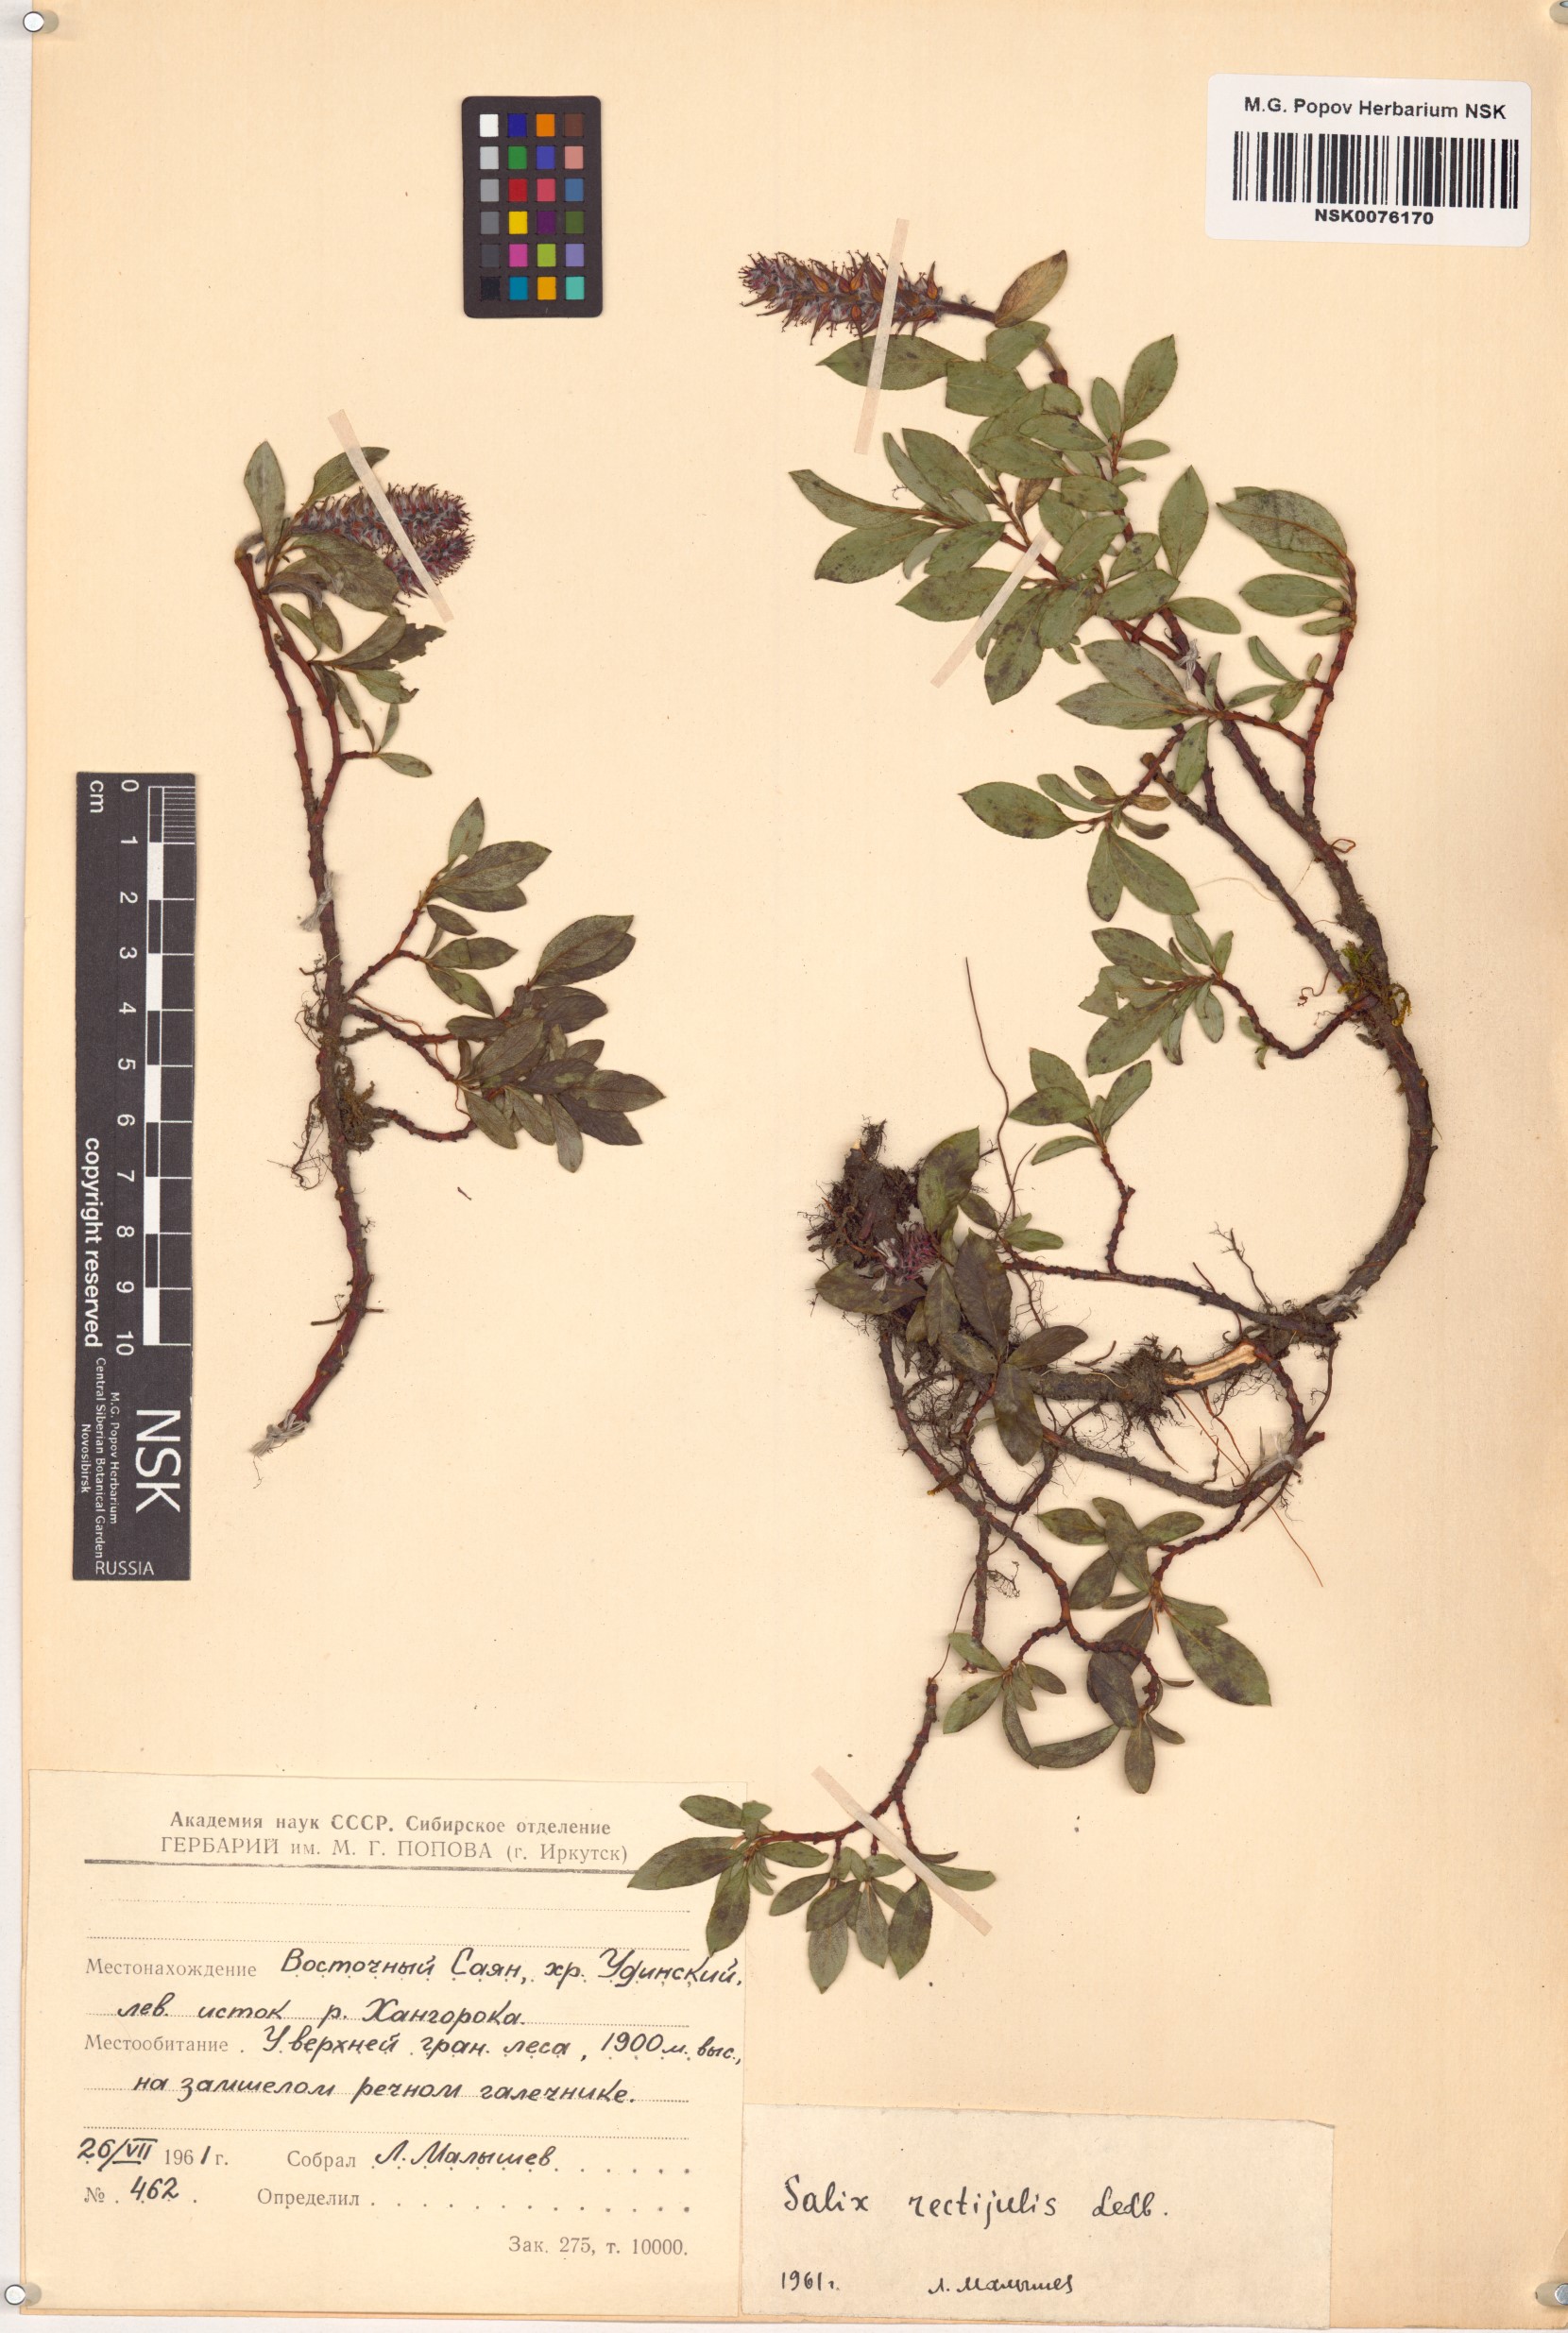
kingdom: Plantae
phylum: Tracheophyta
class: Magnoliopsida
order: Malpighiales
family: Salicaceae
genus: Salix
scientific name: Salix rectijulis
